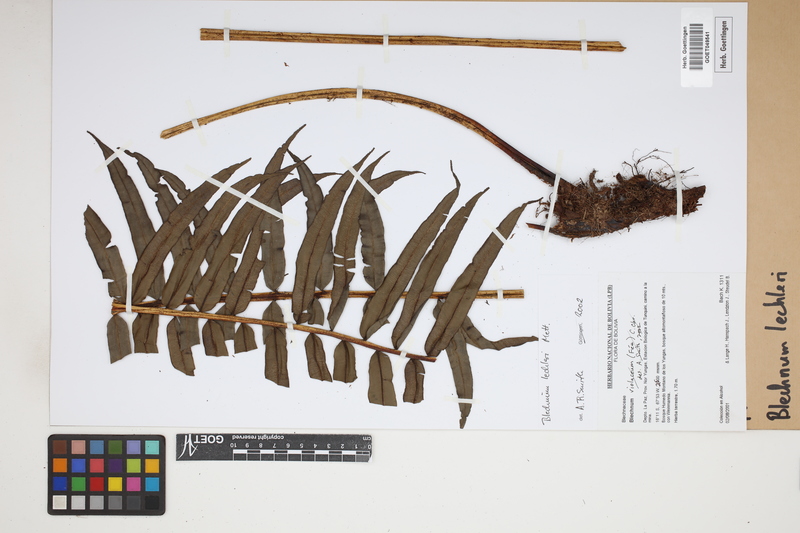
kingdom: Plantae
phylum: Tracheophyta
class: Polypodiopsida
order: Polypodiales
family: Blechnaceae
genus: Parablechnum
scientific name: Parablechnum lechleri
